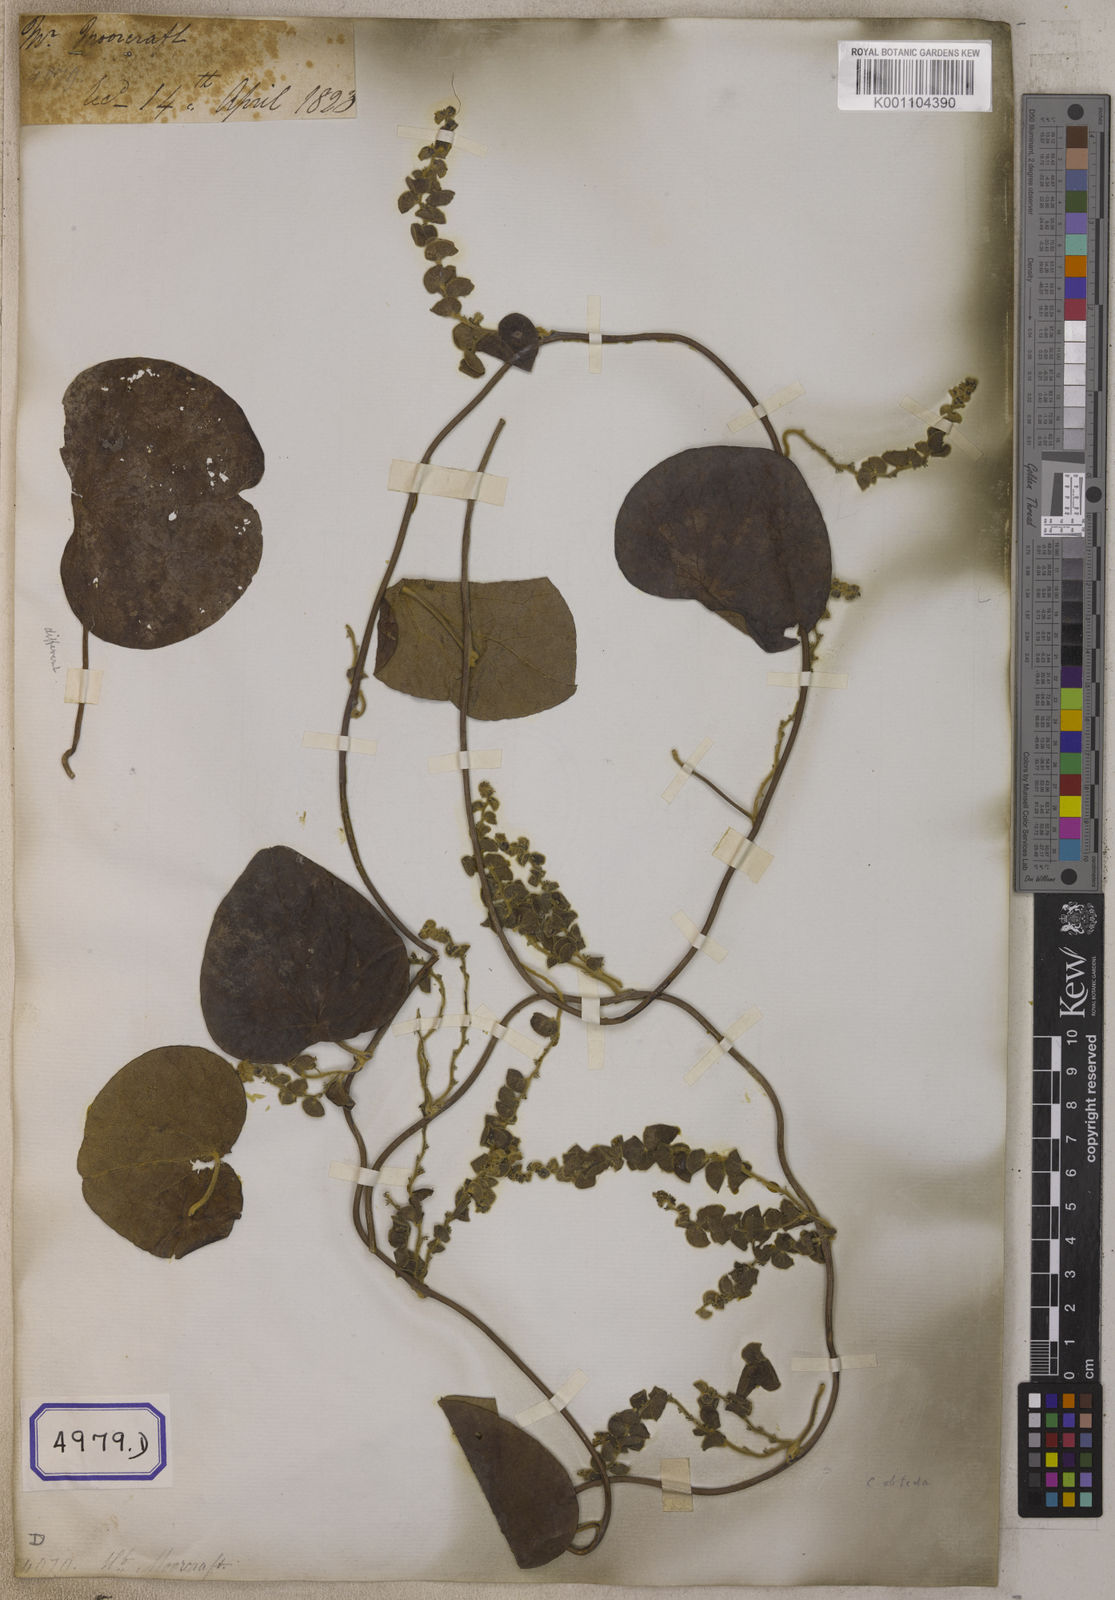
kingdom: Plantae
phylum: Tracheophyta
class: Magnoliopsida
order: Ranunculales
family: Menispermaceae
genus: Cissampelos
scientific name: Cissampelos pareira
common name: Velvetleaf
